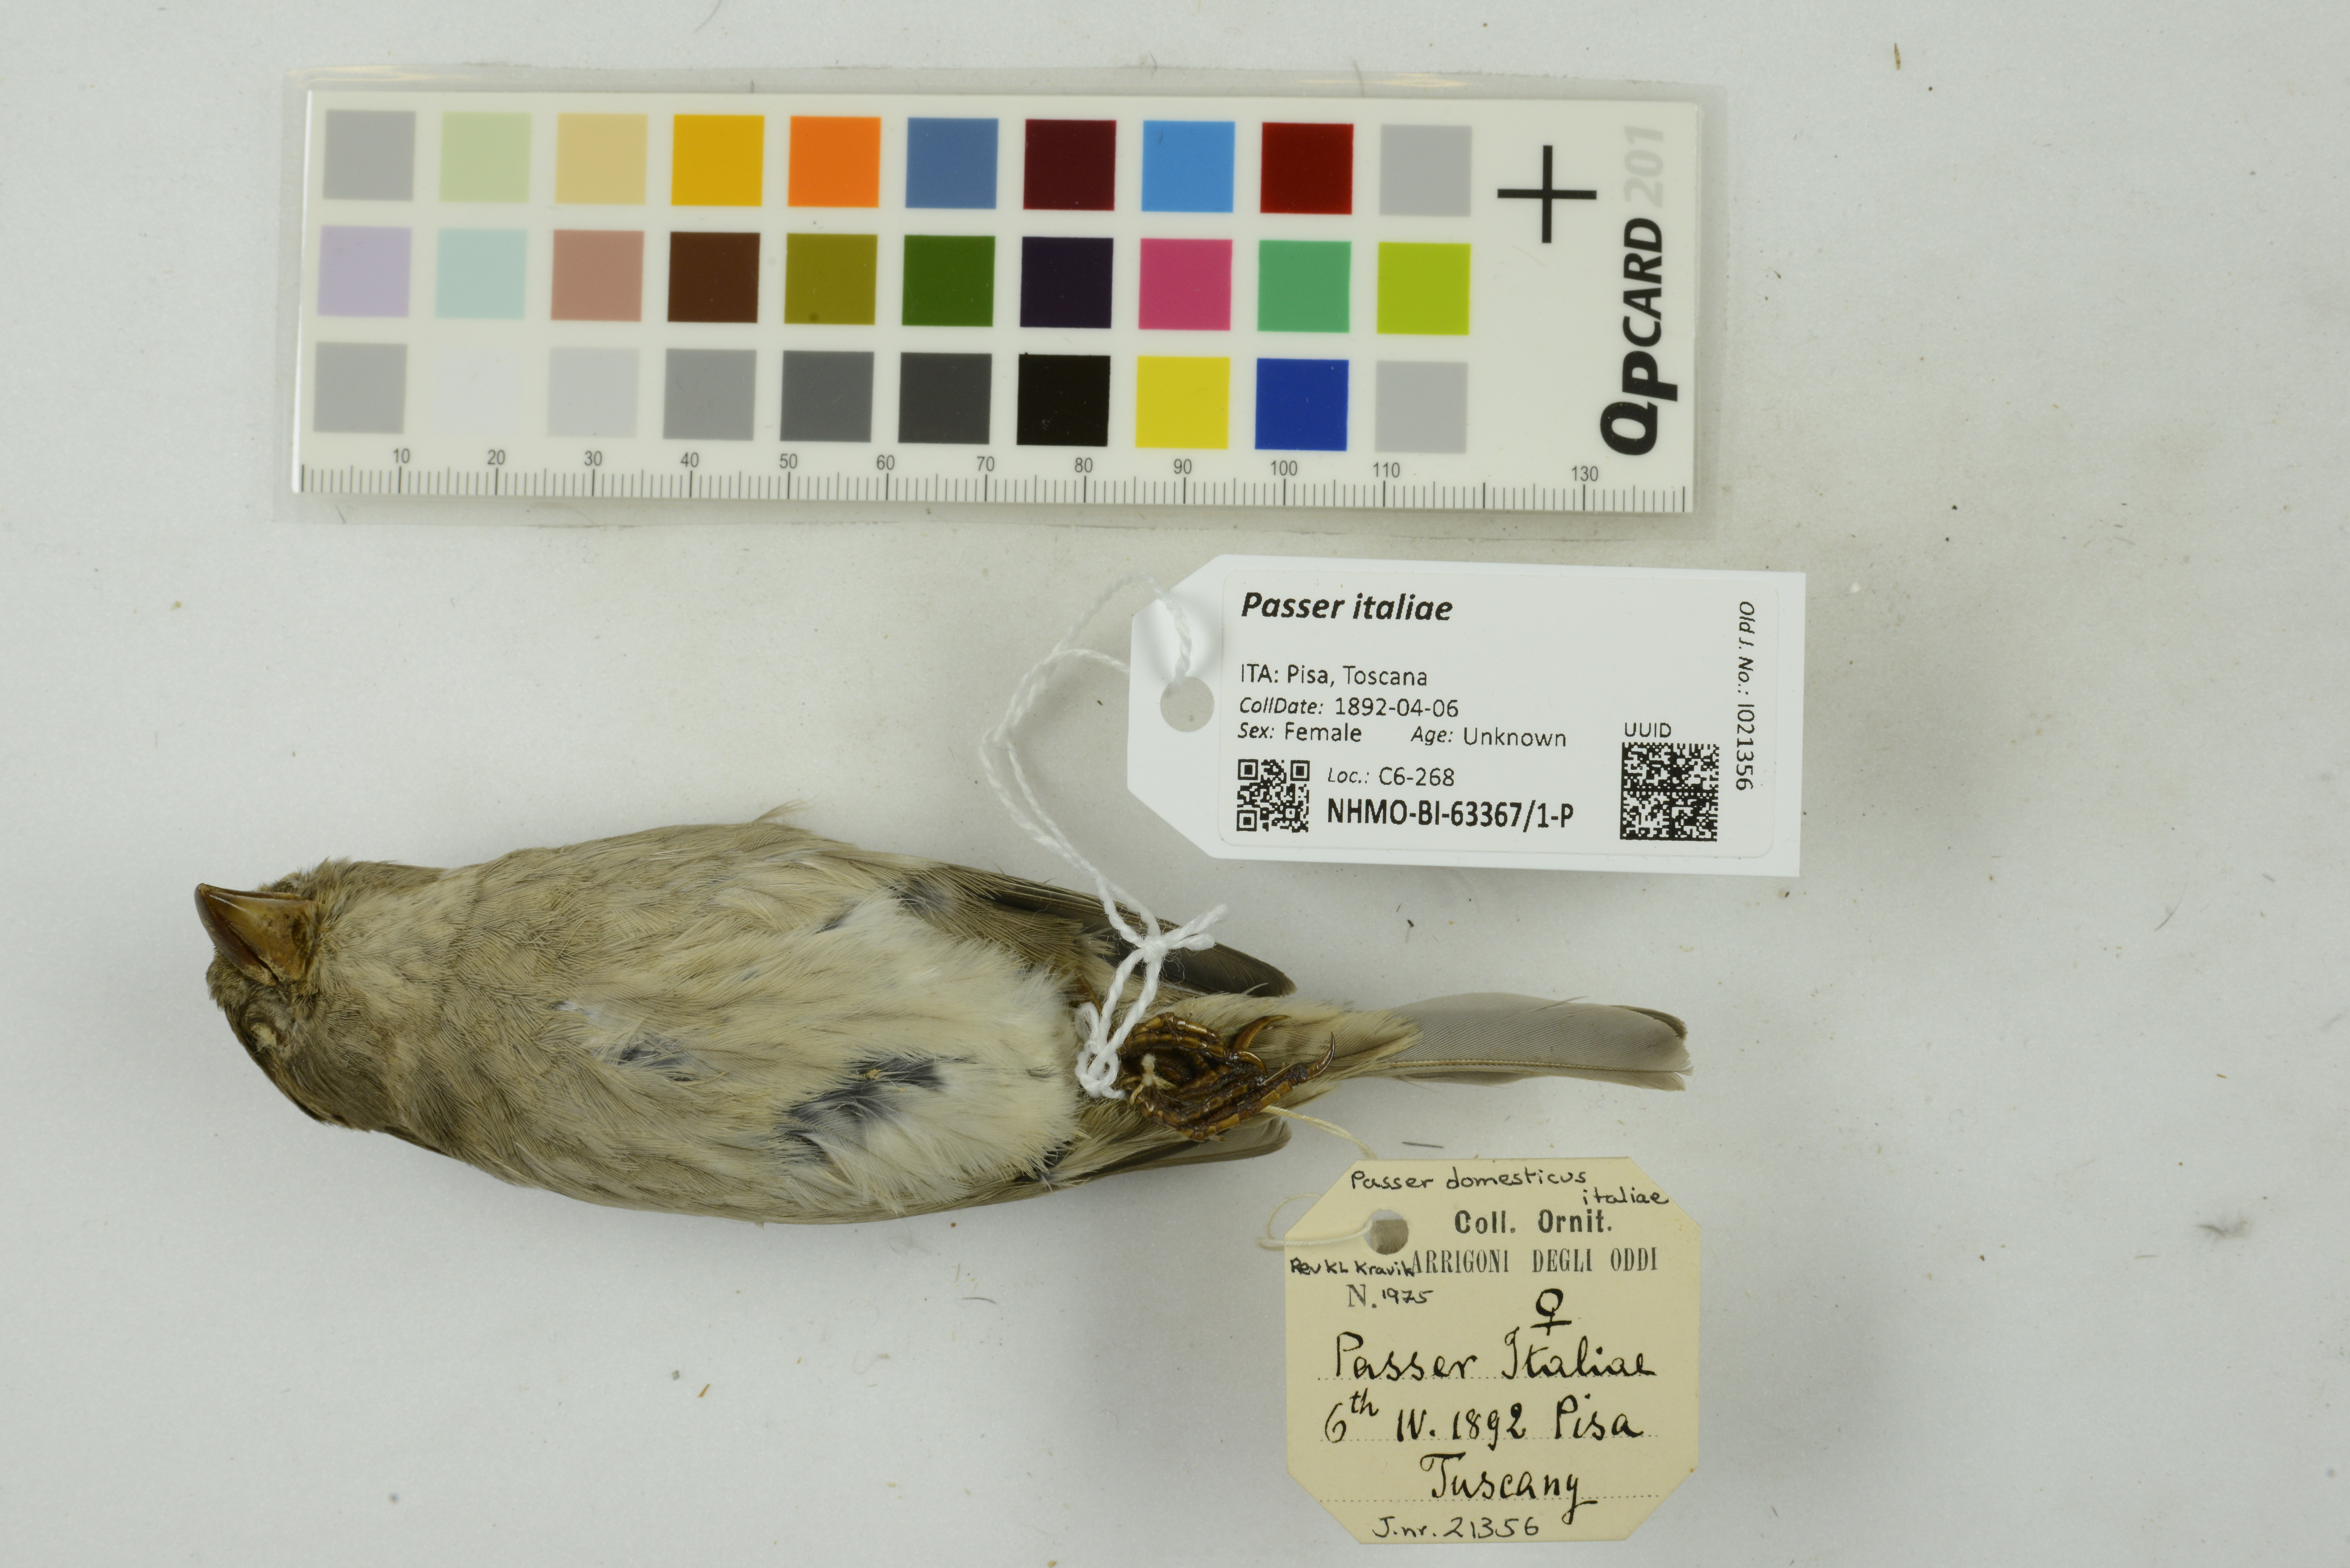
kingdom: Animalia
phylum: Chordata
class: Aves
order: Passeriformes
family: Passeridae
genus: Passer
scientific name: Passer italiae
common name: Italian sparrow
